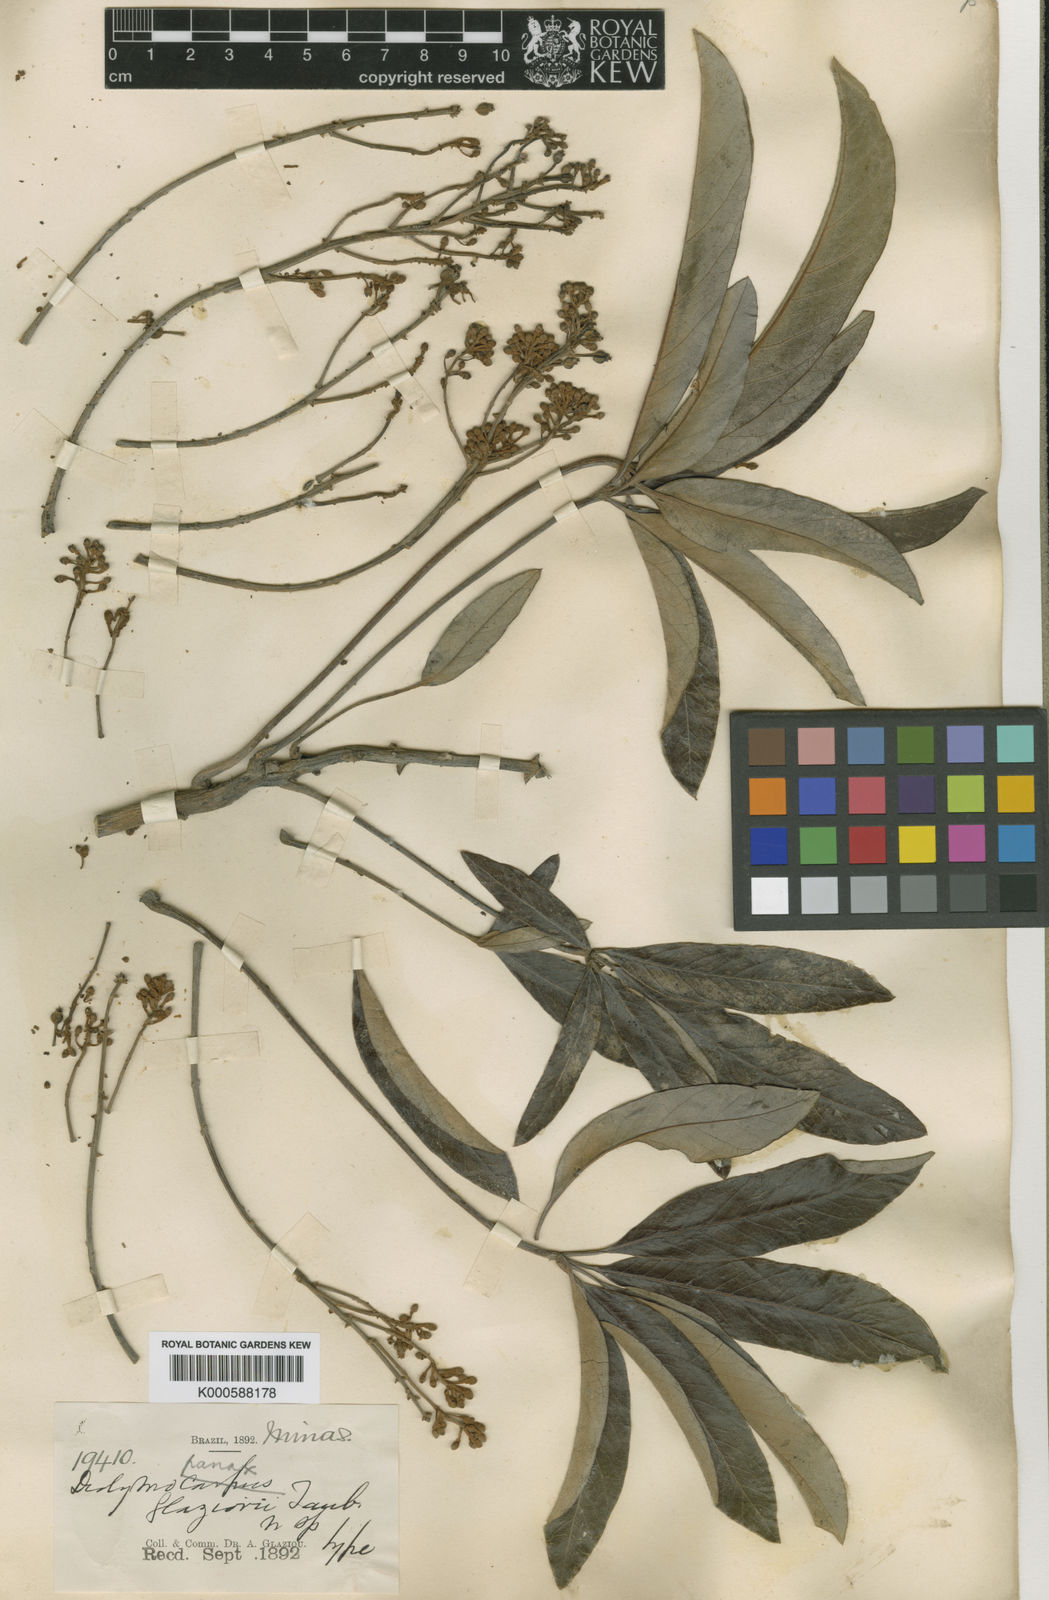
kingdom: Plantae
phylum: Tracheophyta
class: Magnoliopsida
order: Apiales
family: Araliaceae
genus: Didymopanax
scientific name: Didymopanax glaziovii
